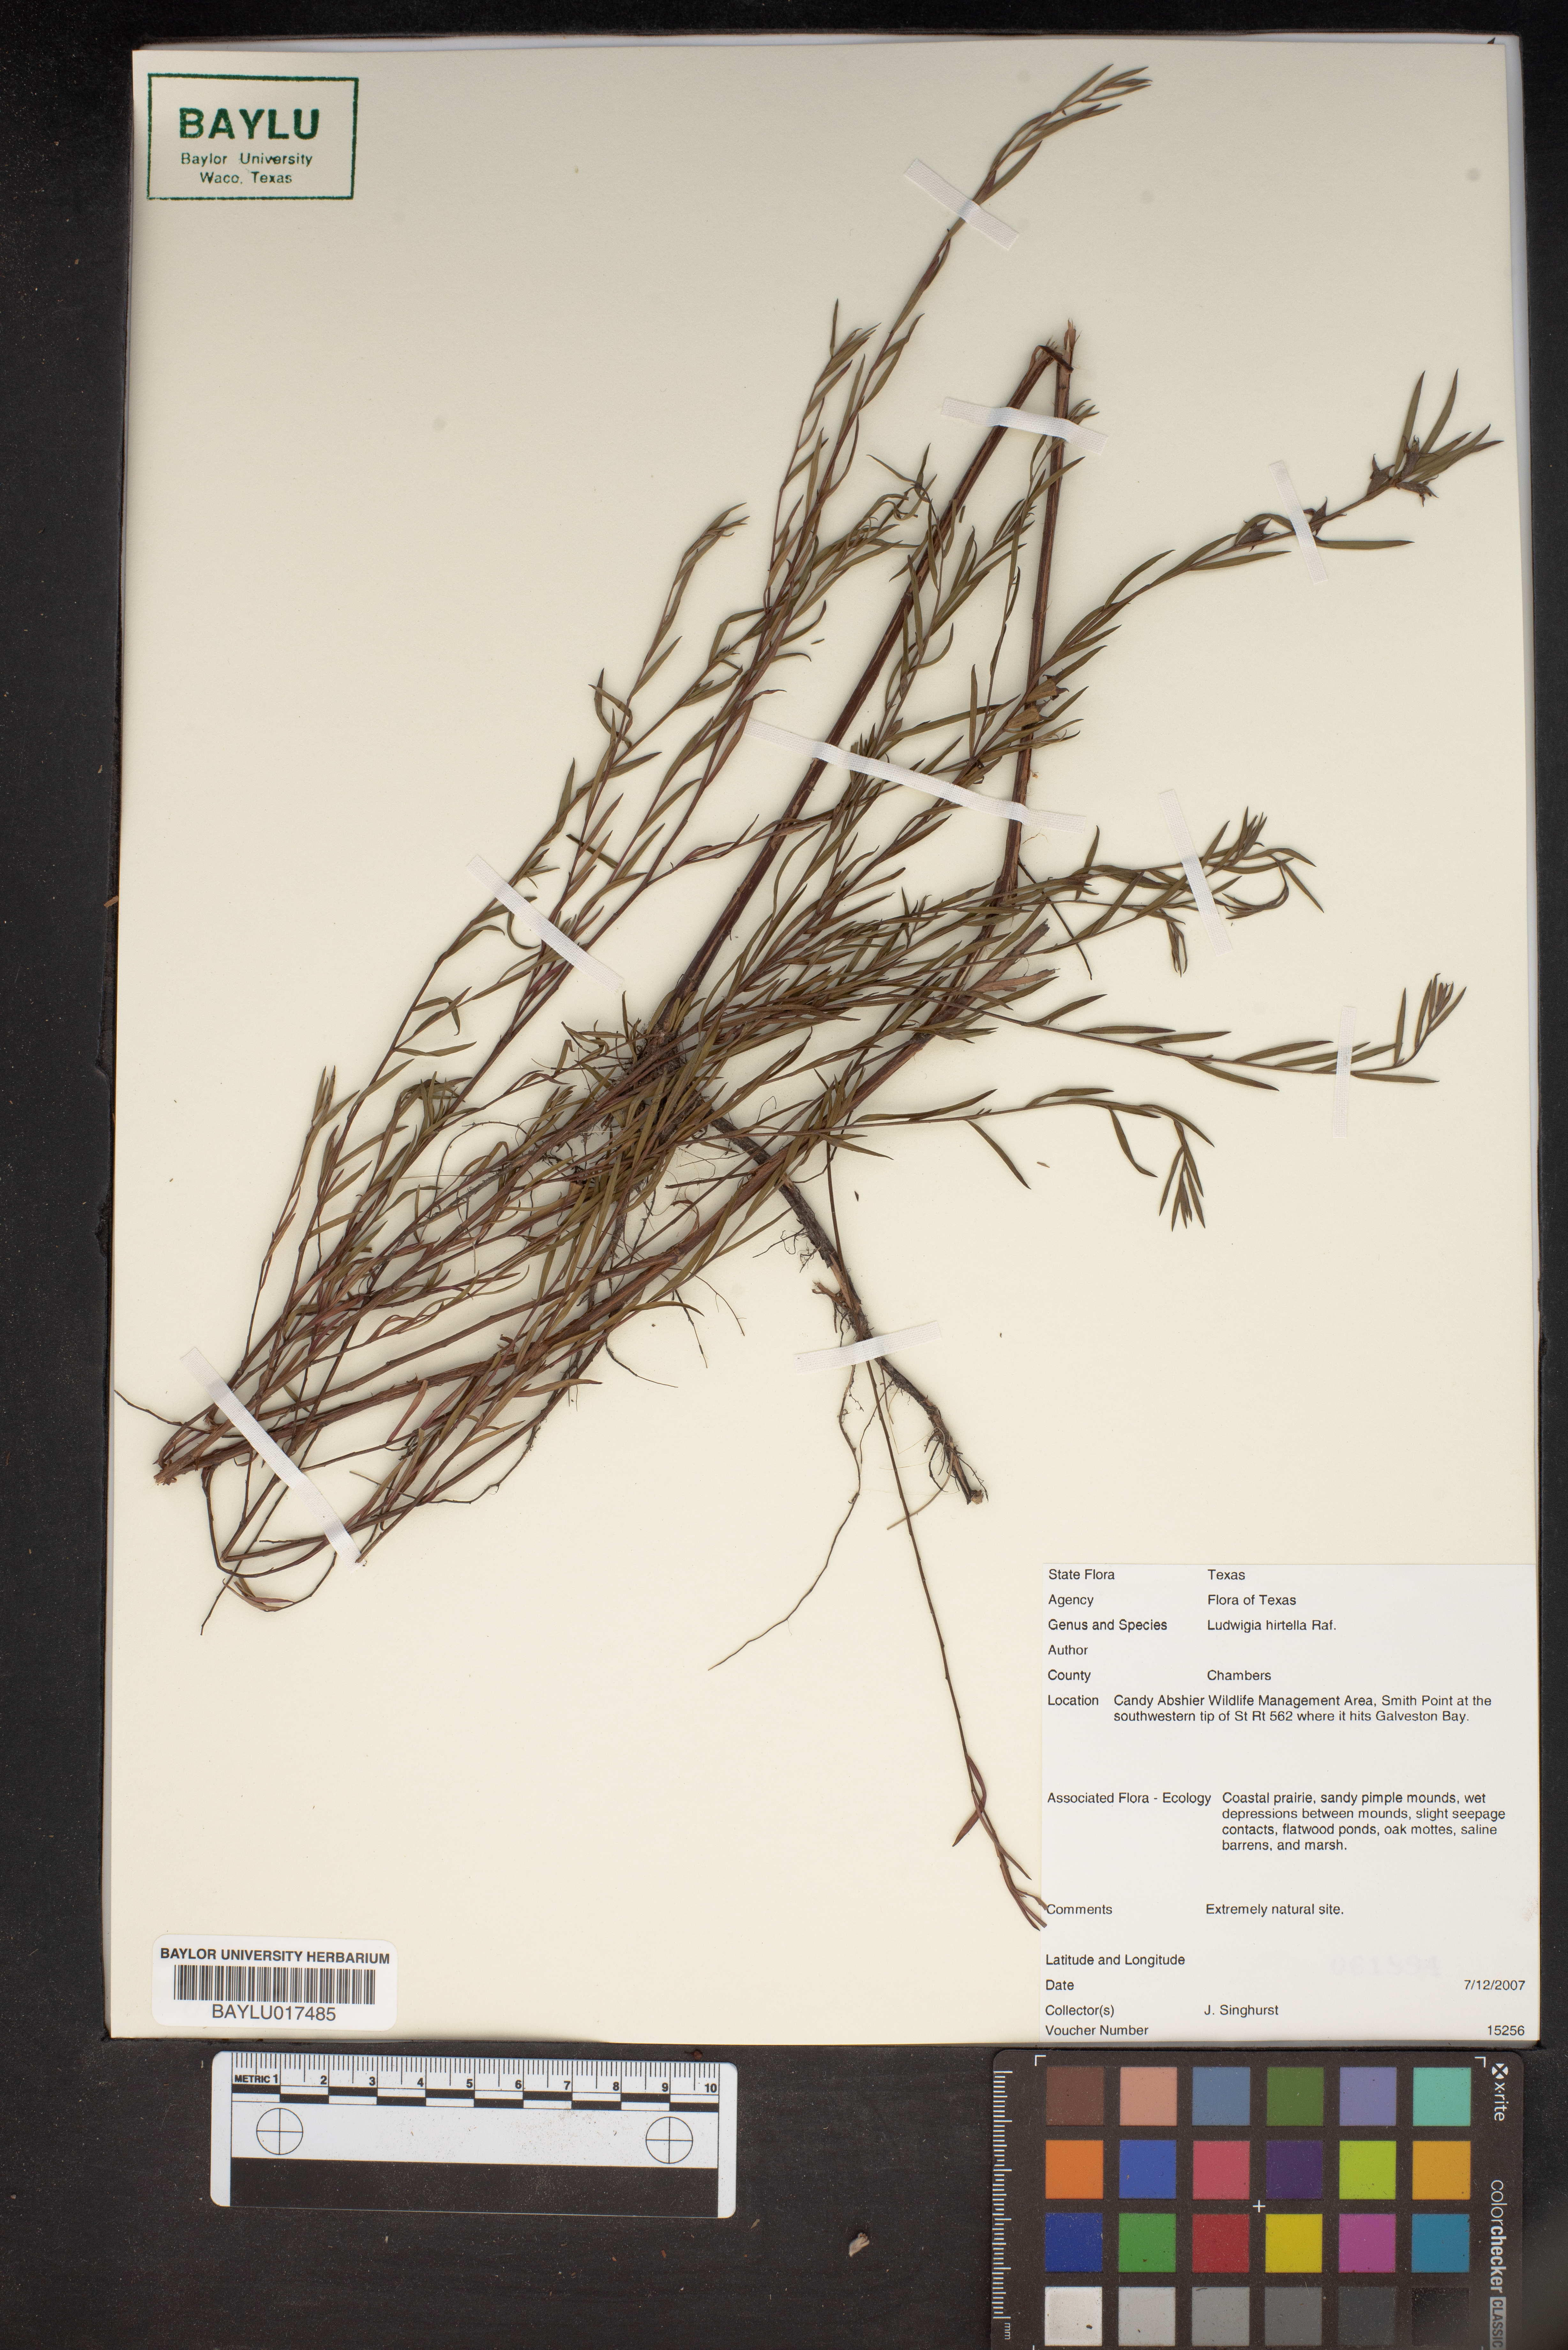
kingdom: Plantae
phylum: Tracheophyta
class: Magnoliopsida
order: Myrtales
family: Onagraceae
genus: Ludwigia
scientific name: Ludwigia hirtella
